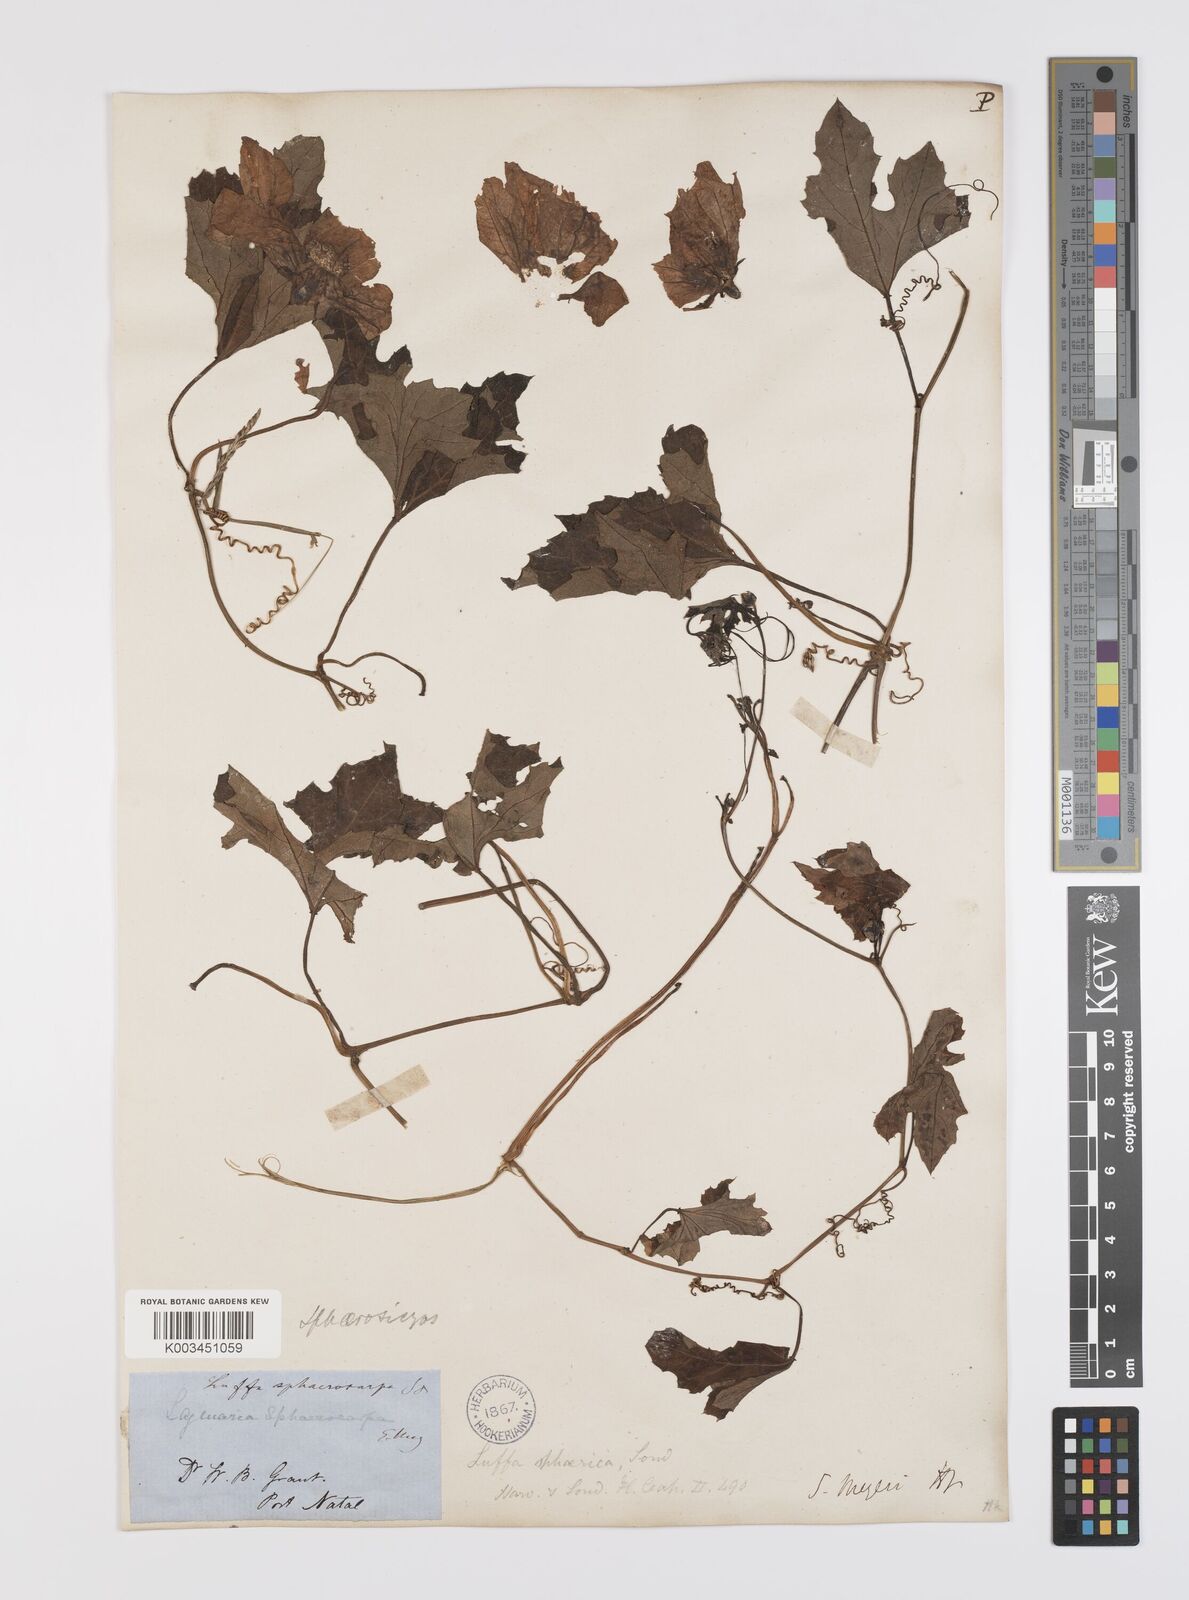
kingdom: Plantae
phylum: Tracheophyta
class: Magnoliopsida
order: Cucurbitales
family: Cucurbitaceae
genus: Lagenaria
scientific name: Lagenaria sphaerica
